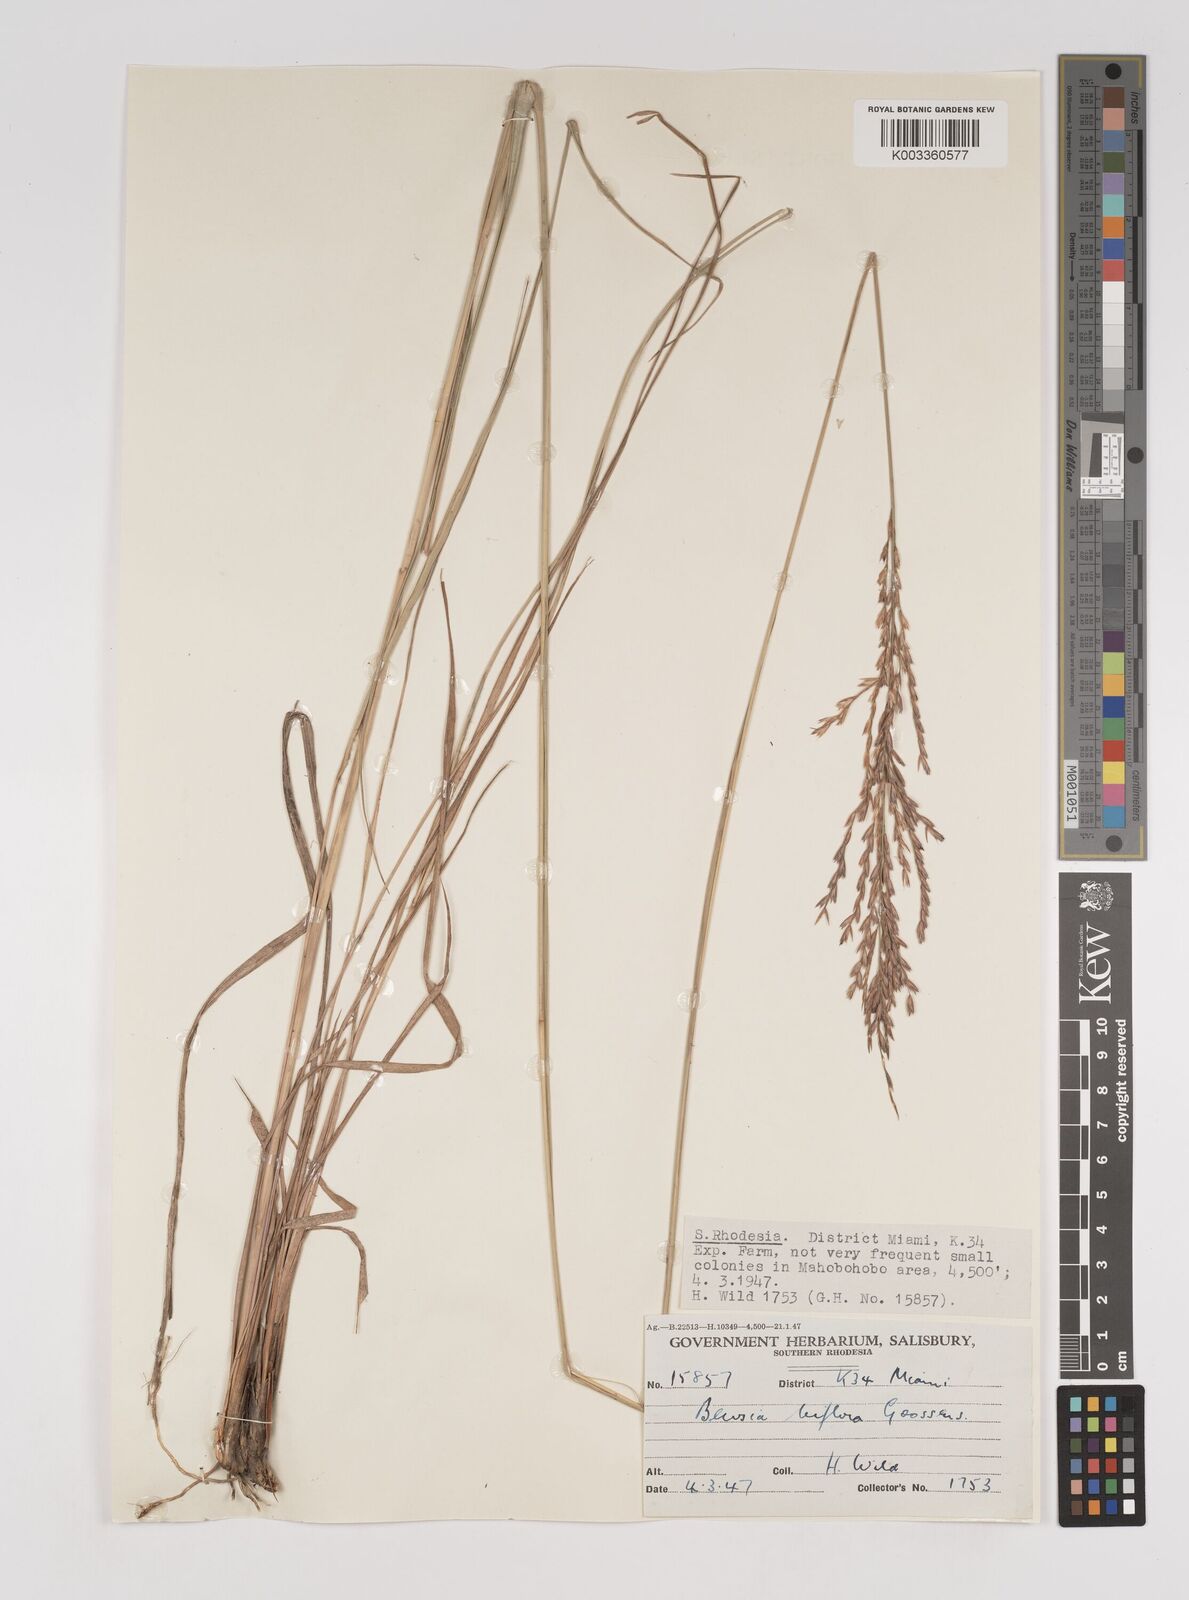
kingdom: Plantae
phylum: Tracheophyta
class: Liliopsida
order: Poales
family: Poaceae
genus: Bewsia
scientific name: Bewsia biflora
